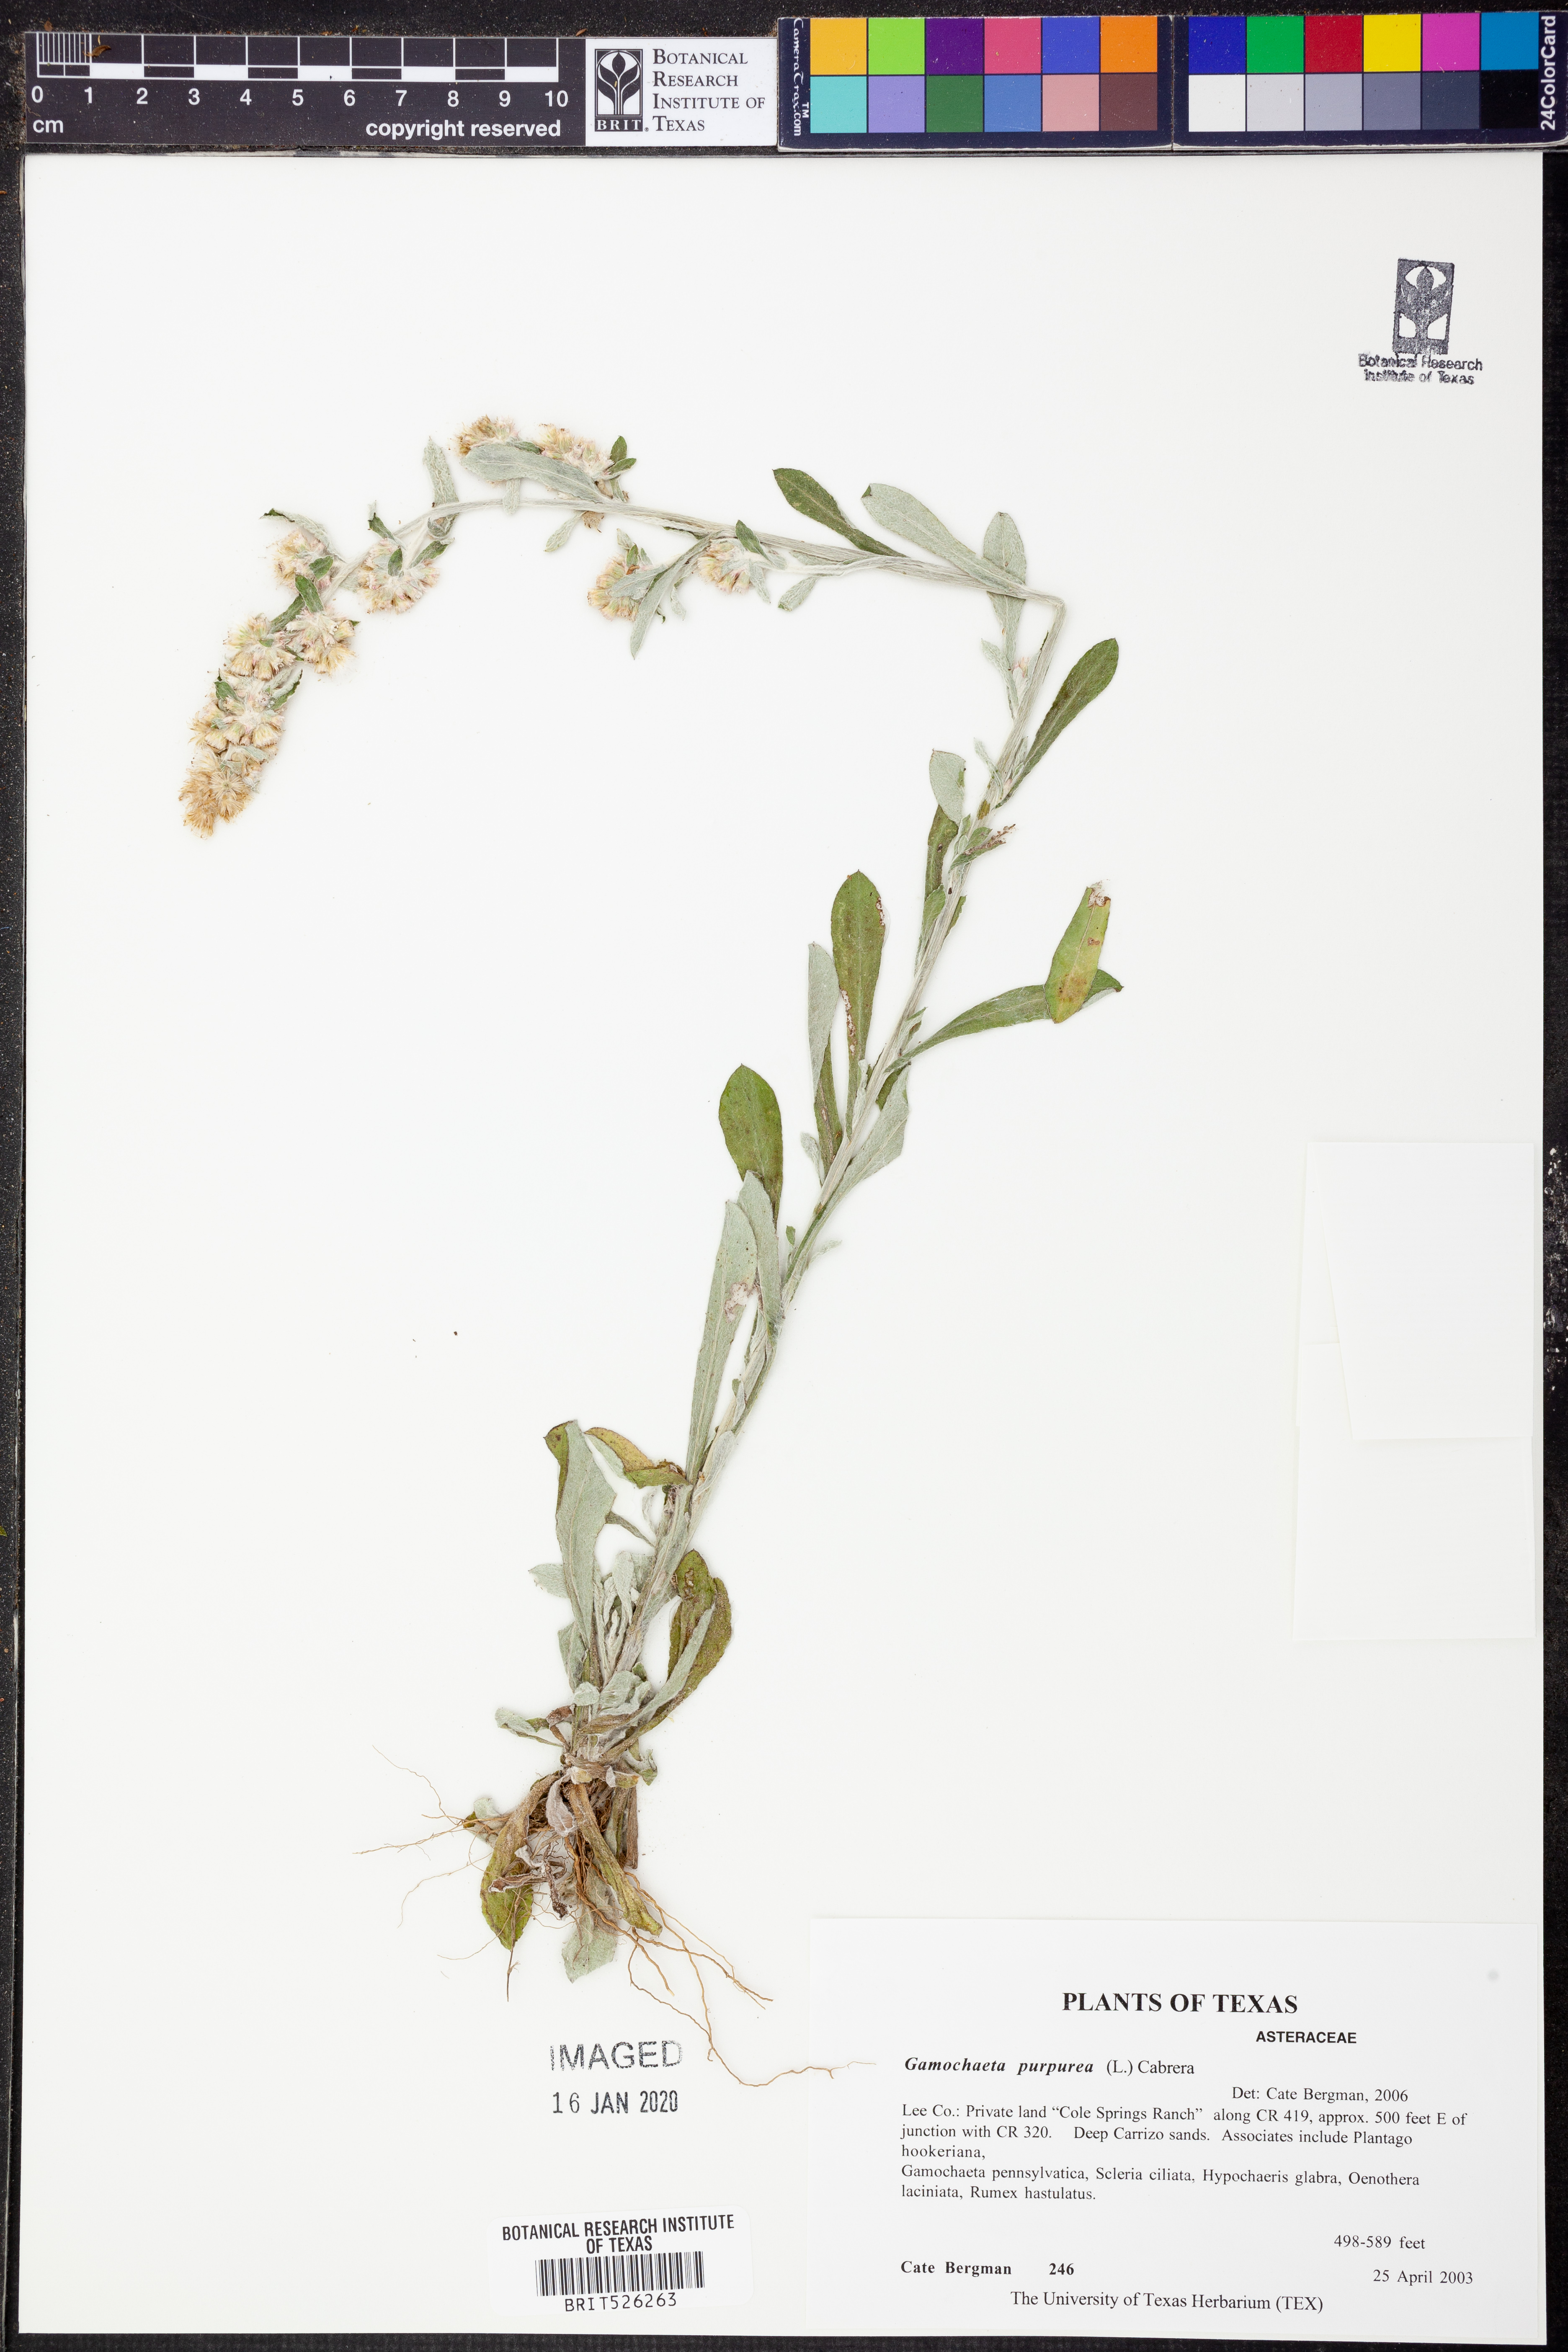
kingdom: Plantae
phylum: Tracheophyta
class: Magnoliopsida
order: Asterales
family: Asteraceae
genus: Gamochaeta
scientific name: Gamochaeta purpurea
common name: Purple cudweed
